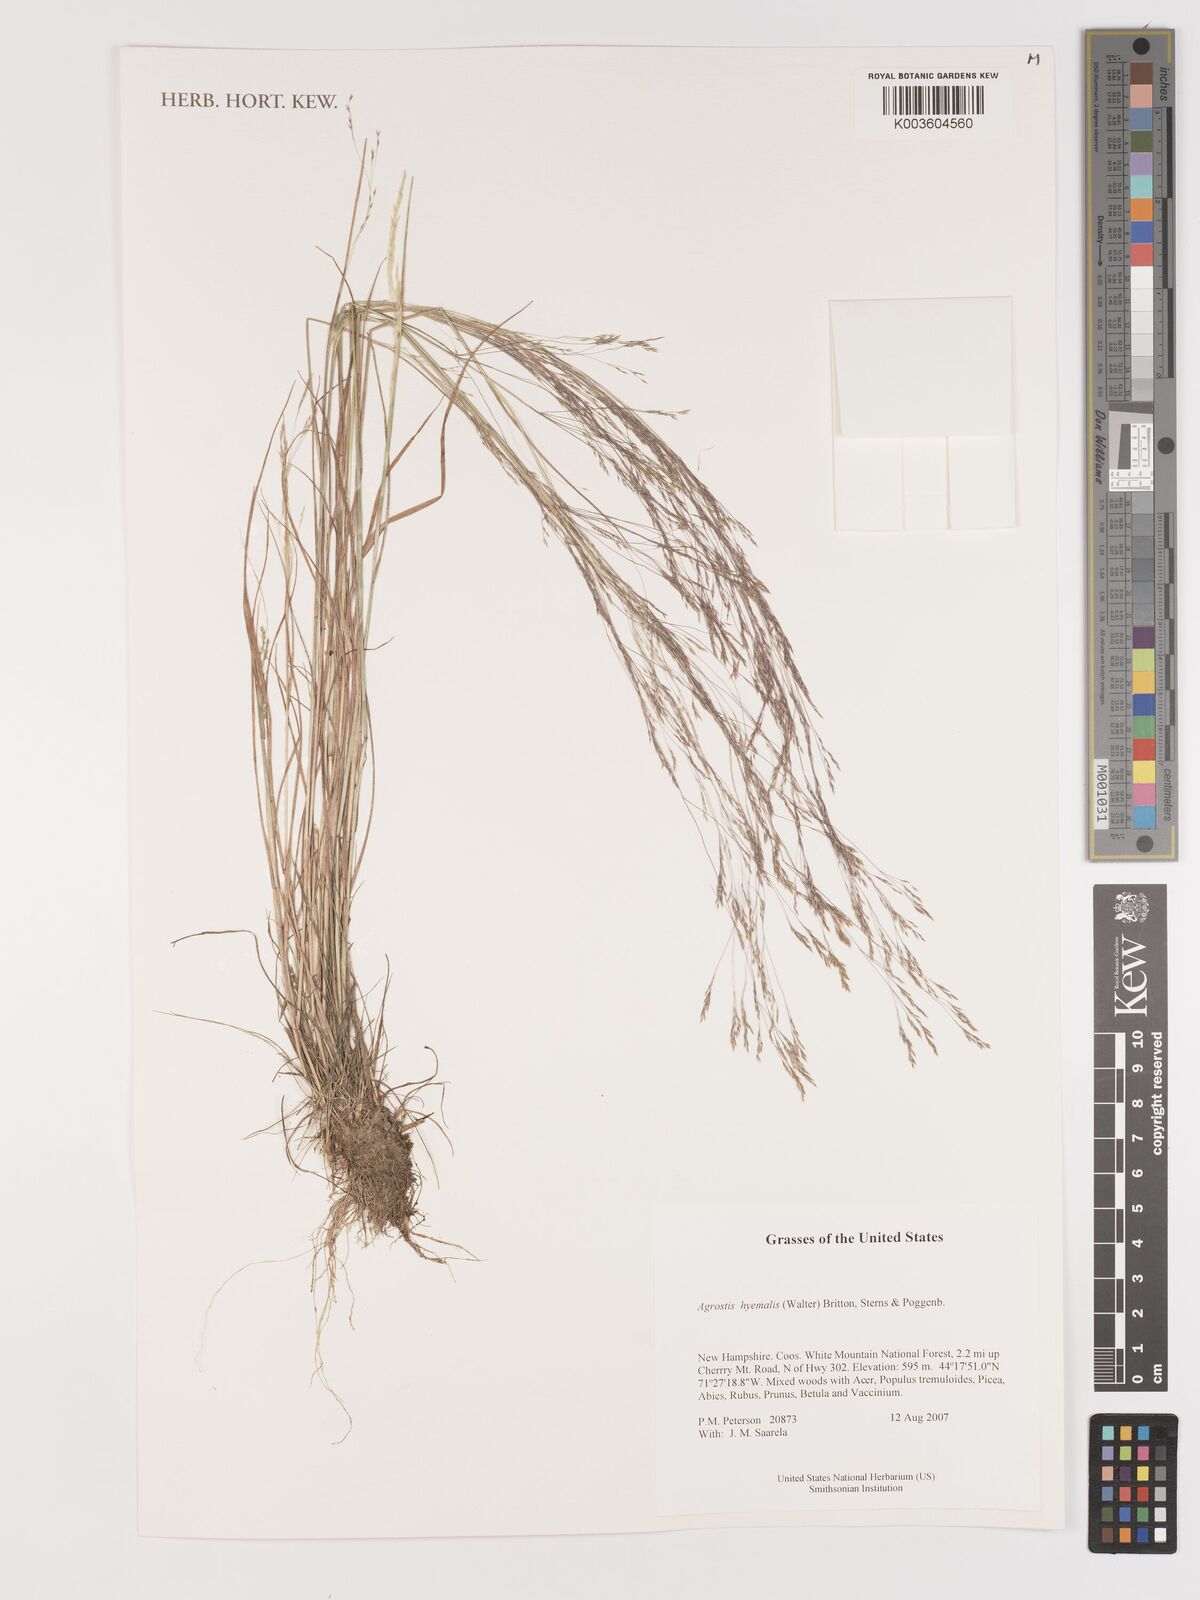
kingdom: Plantae
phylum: Tracheophyta
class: Liliopsida
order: Poales
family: Poaceae
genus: Agrostis
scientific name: Agrostis hyemalis
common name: Small bent
